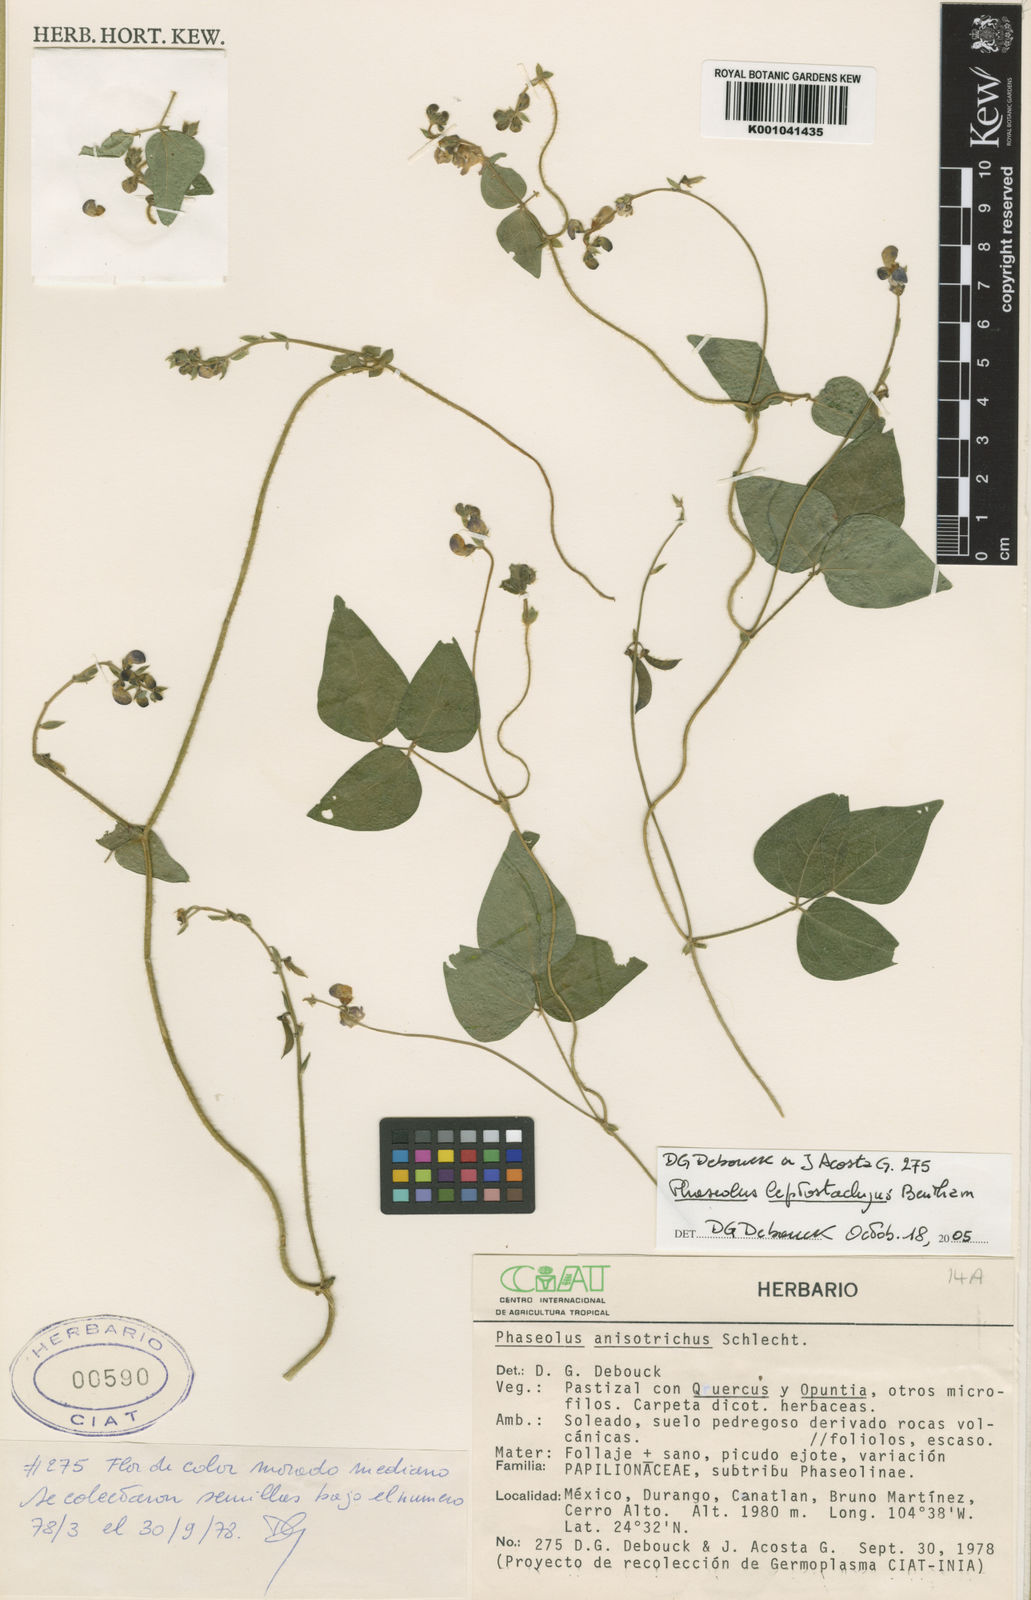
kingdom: Plantae
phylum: Tracheophyta
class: Magnoliopsida
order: Fabales
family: Fabaceae
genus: Phaseolus
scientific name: Phaseolus
